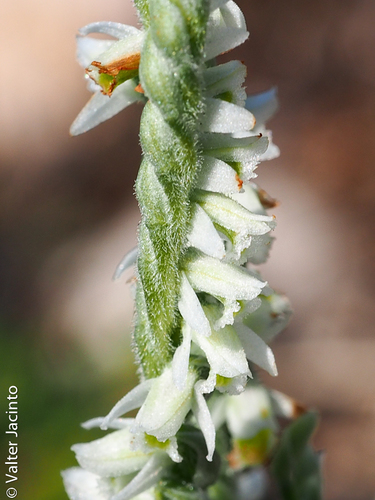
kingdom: Plantae
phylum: Tracheophyta
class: Liliopsida
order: Asparagales
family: Orchidaceae
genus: Spiranthes
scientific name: Spiranthes spiralis
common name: Autumn lady's-tresses
